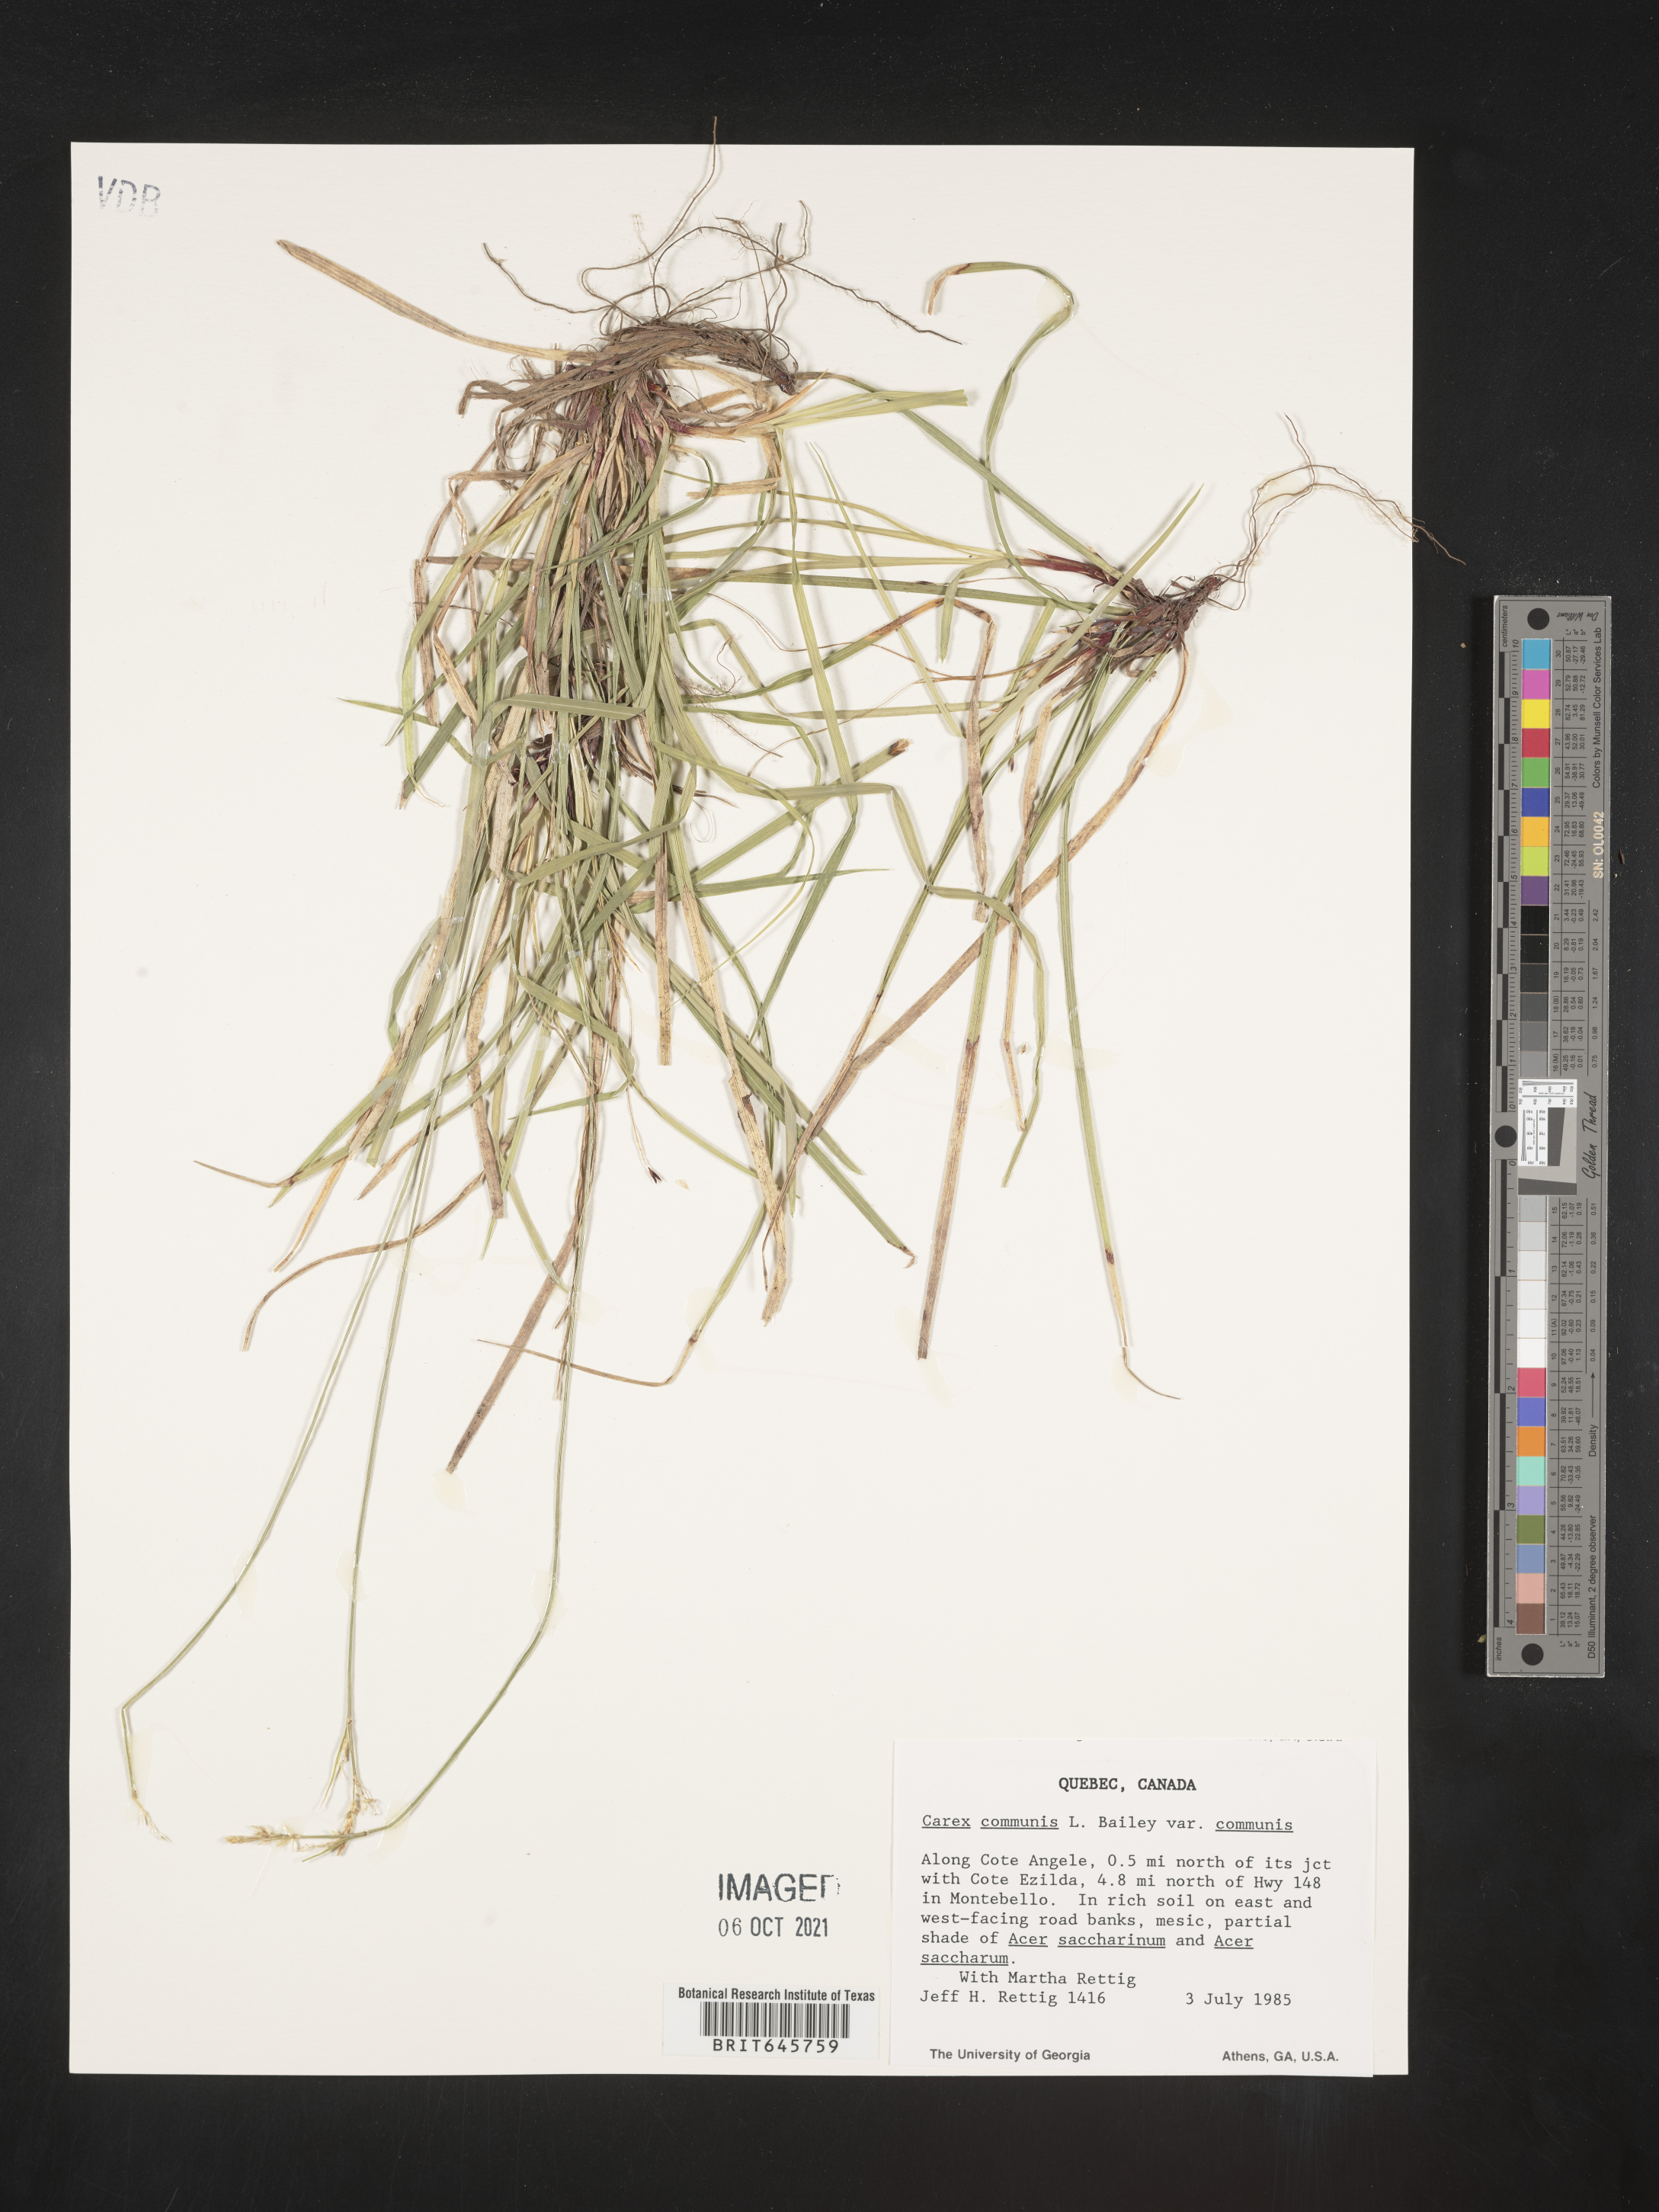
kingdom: Plantae
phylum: Tracheophyta
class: Liliopsida
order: Poales
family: Cyperaceae
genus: Carex
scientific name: Carex communis
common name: Colonial oak sedge
